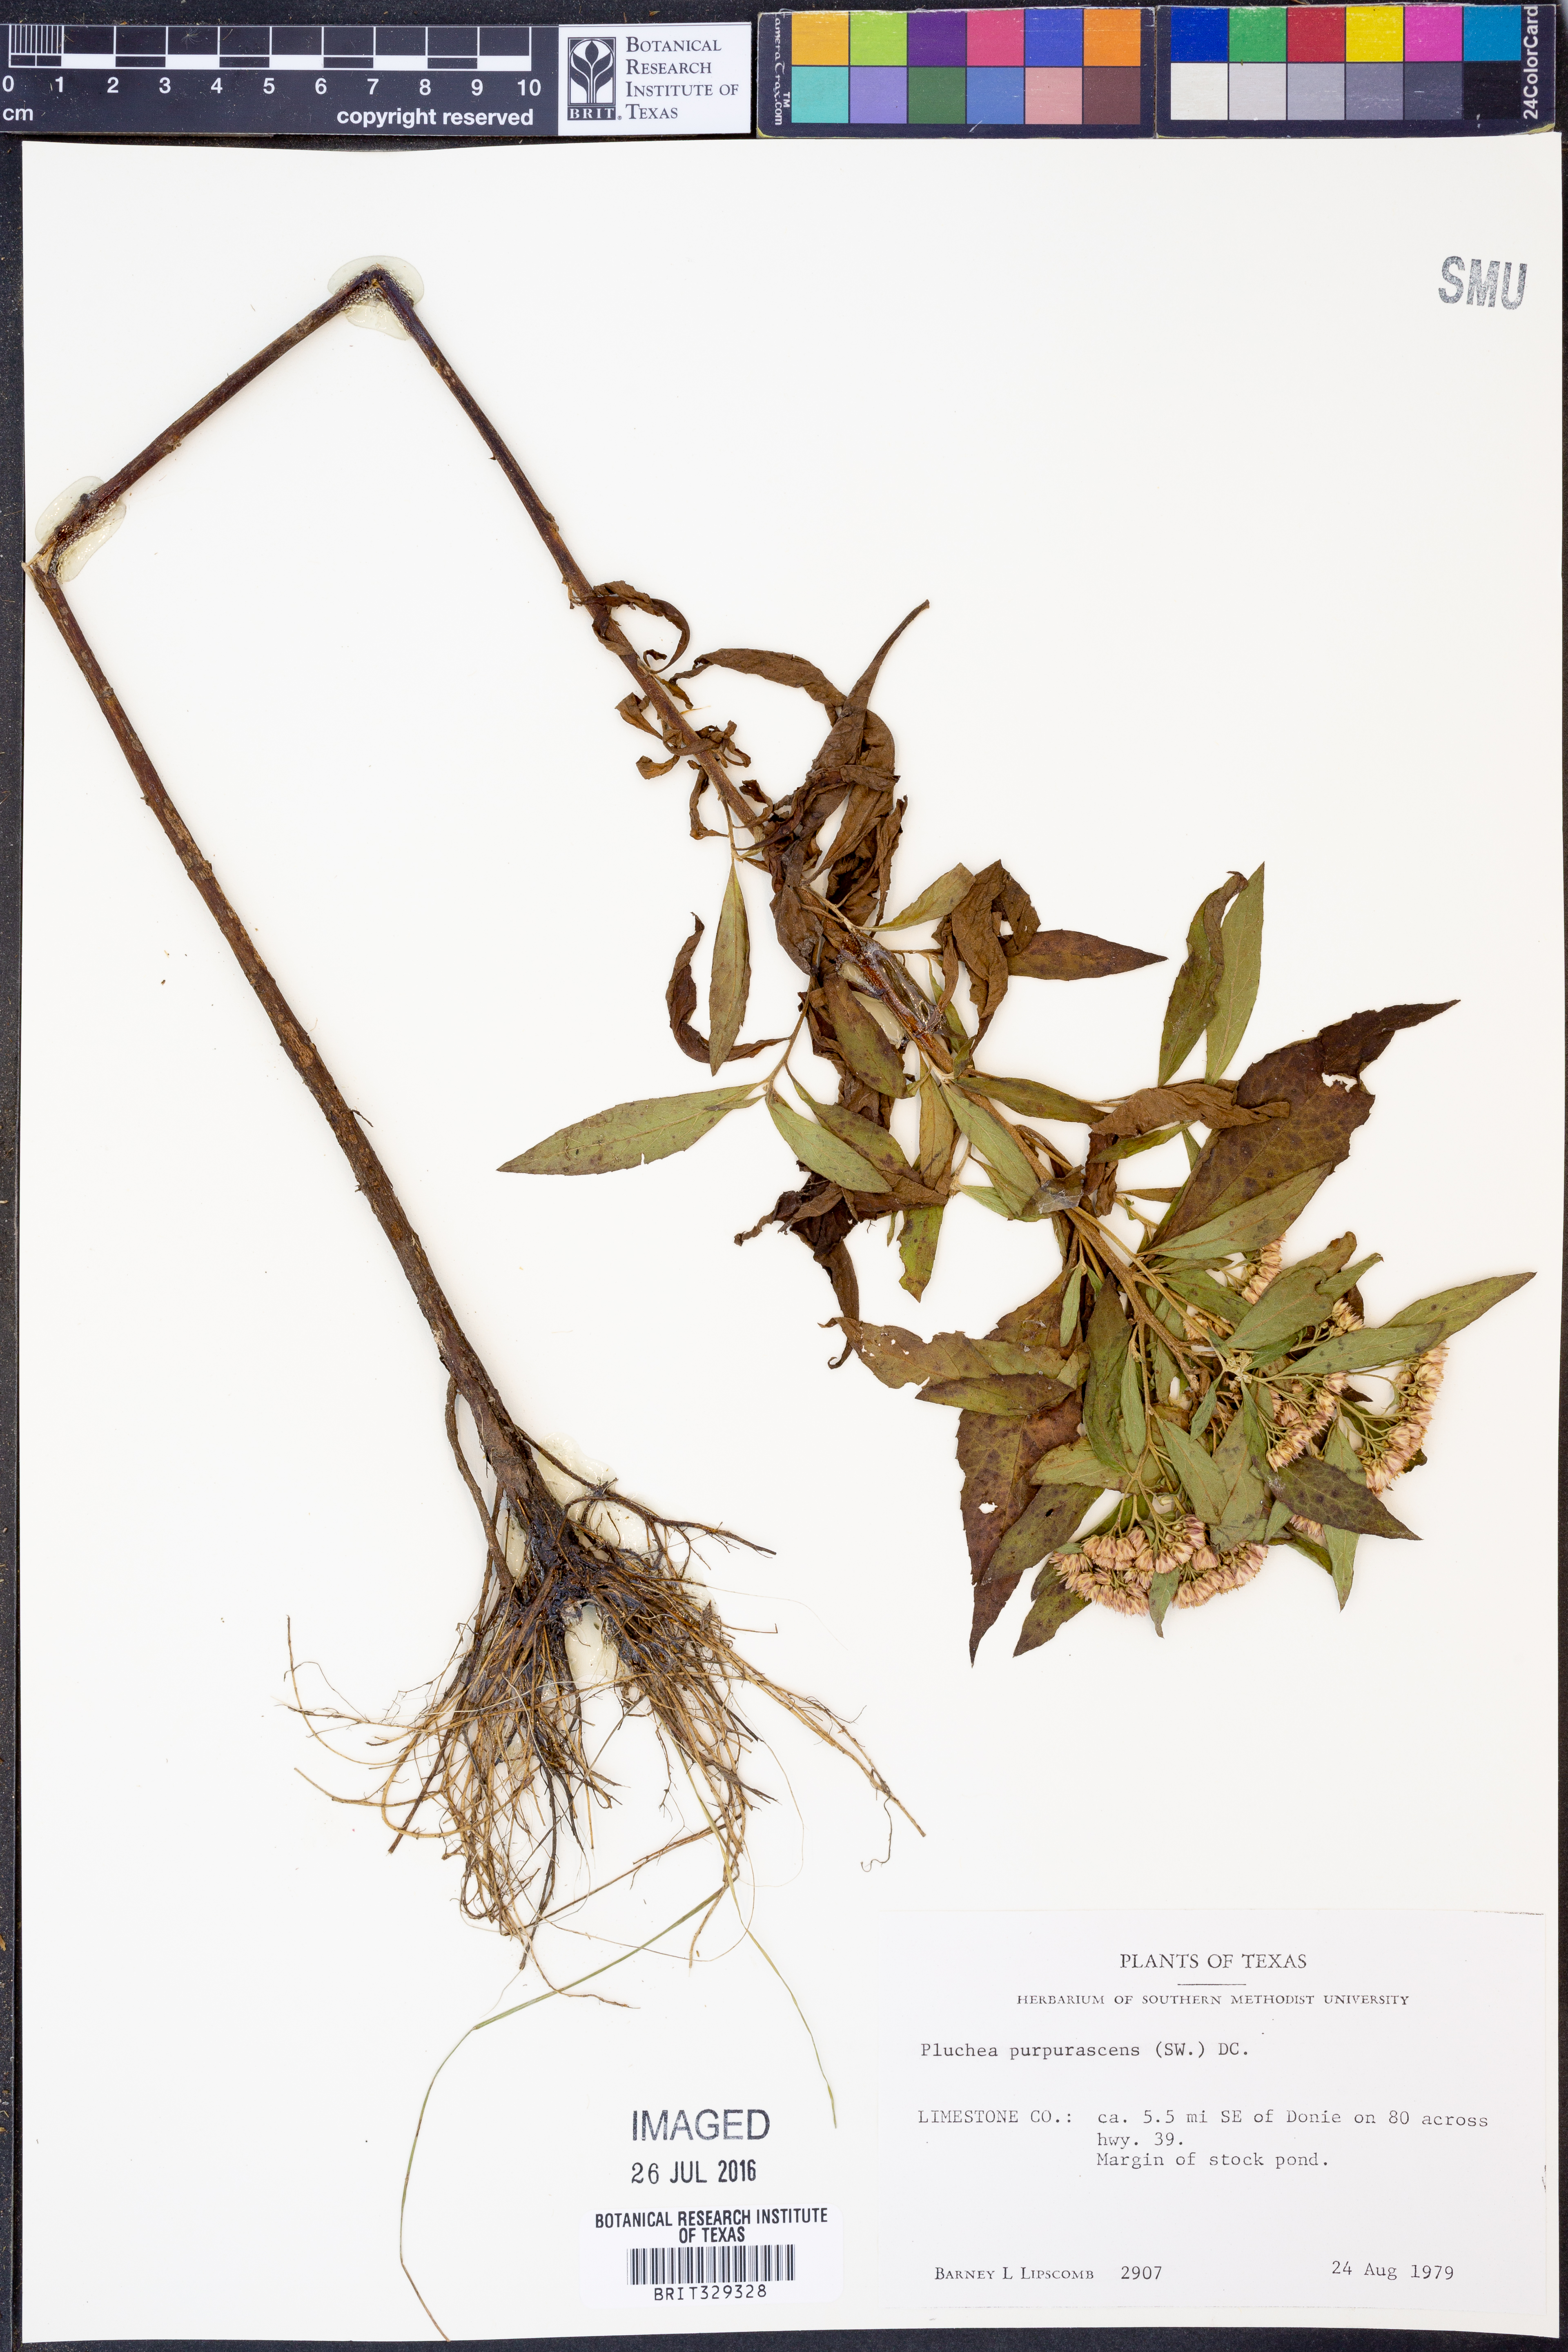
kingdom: Plantae
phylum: Tracheophyta
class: Magnoliopsida
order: Asterales
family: Asteraceae
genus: Pluchea
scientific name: Pluchea odorata
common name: Saltmarsh fleabane
